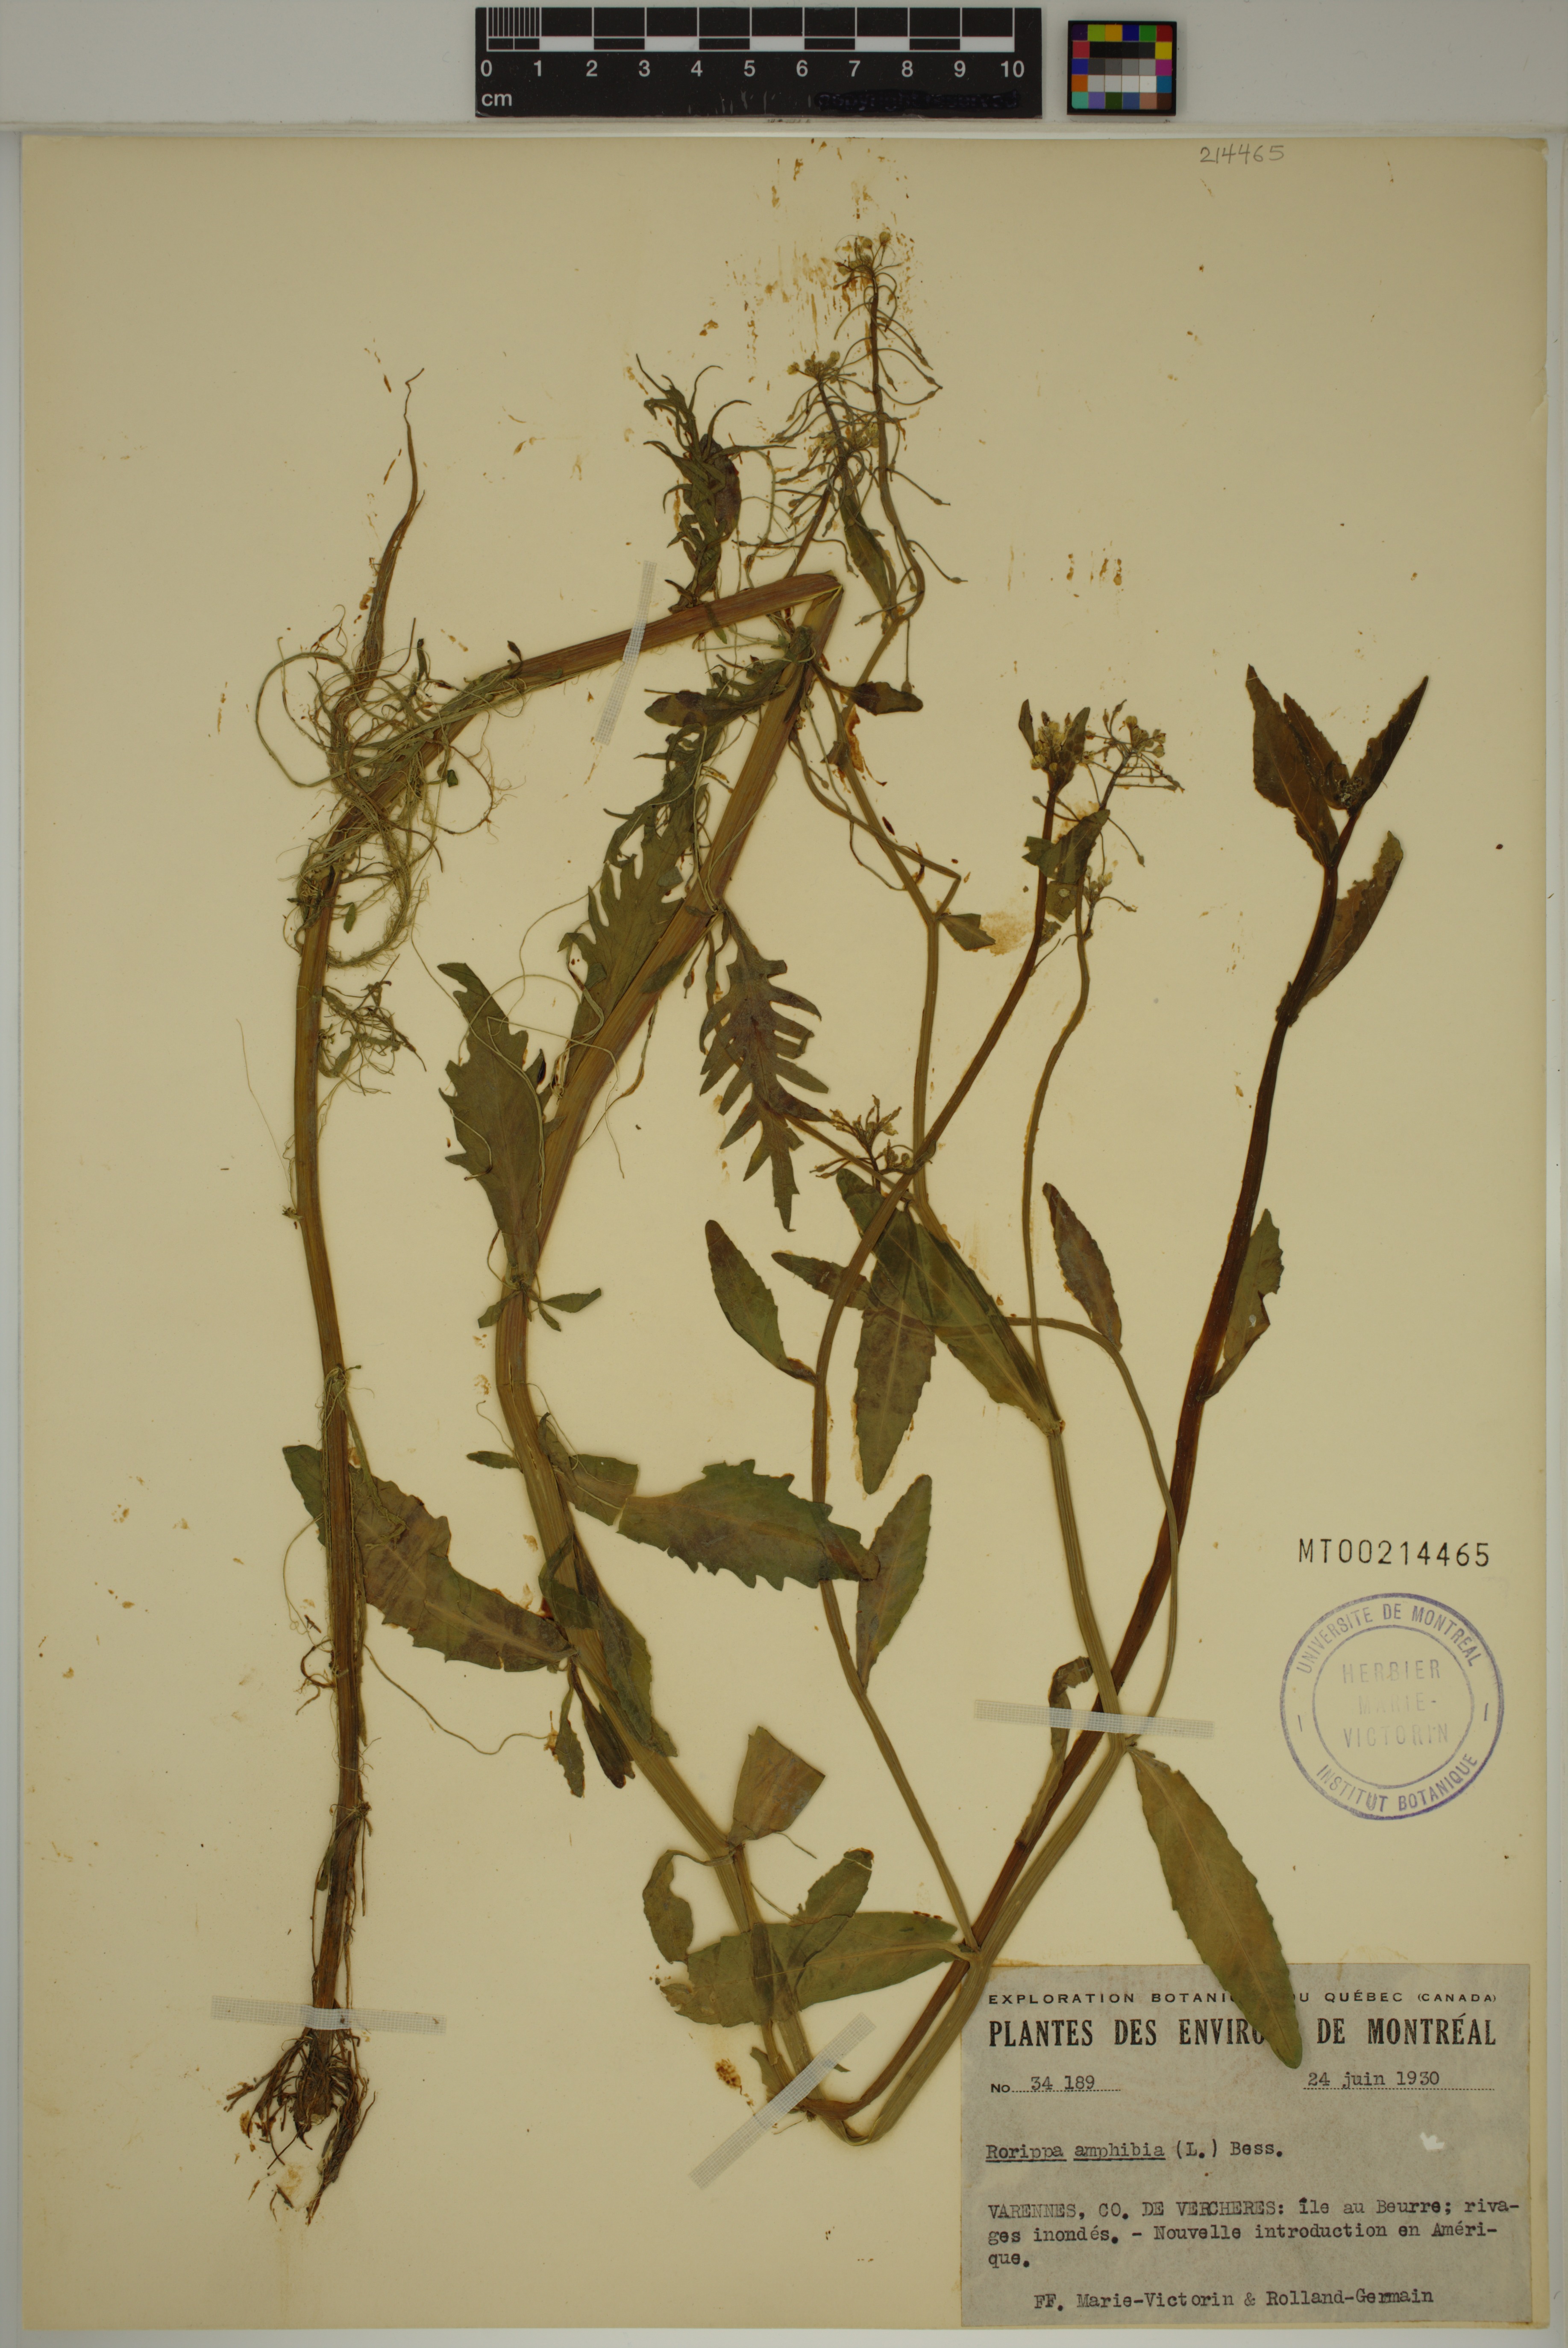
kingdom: Plantae
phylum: Tracheophyta
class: Magnoliopsida
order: Brassicales
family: Brassicaceae
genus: Rorippa
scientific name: Rorippa amphibia
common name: Great yellow-cress
